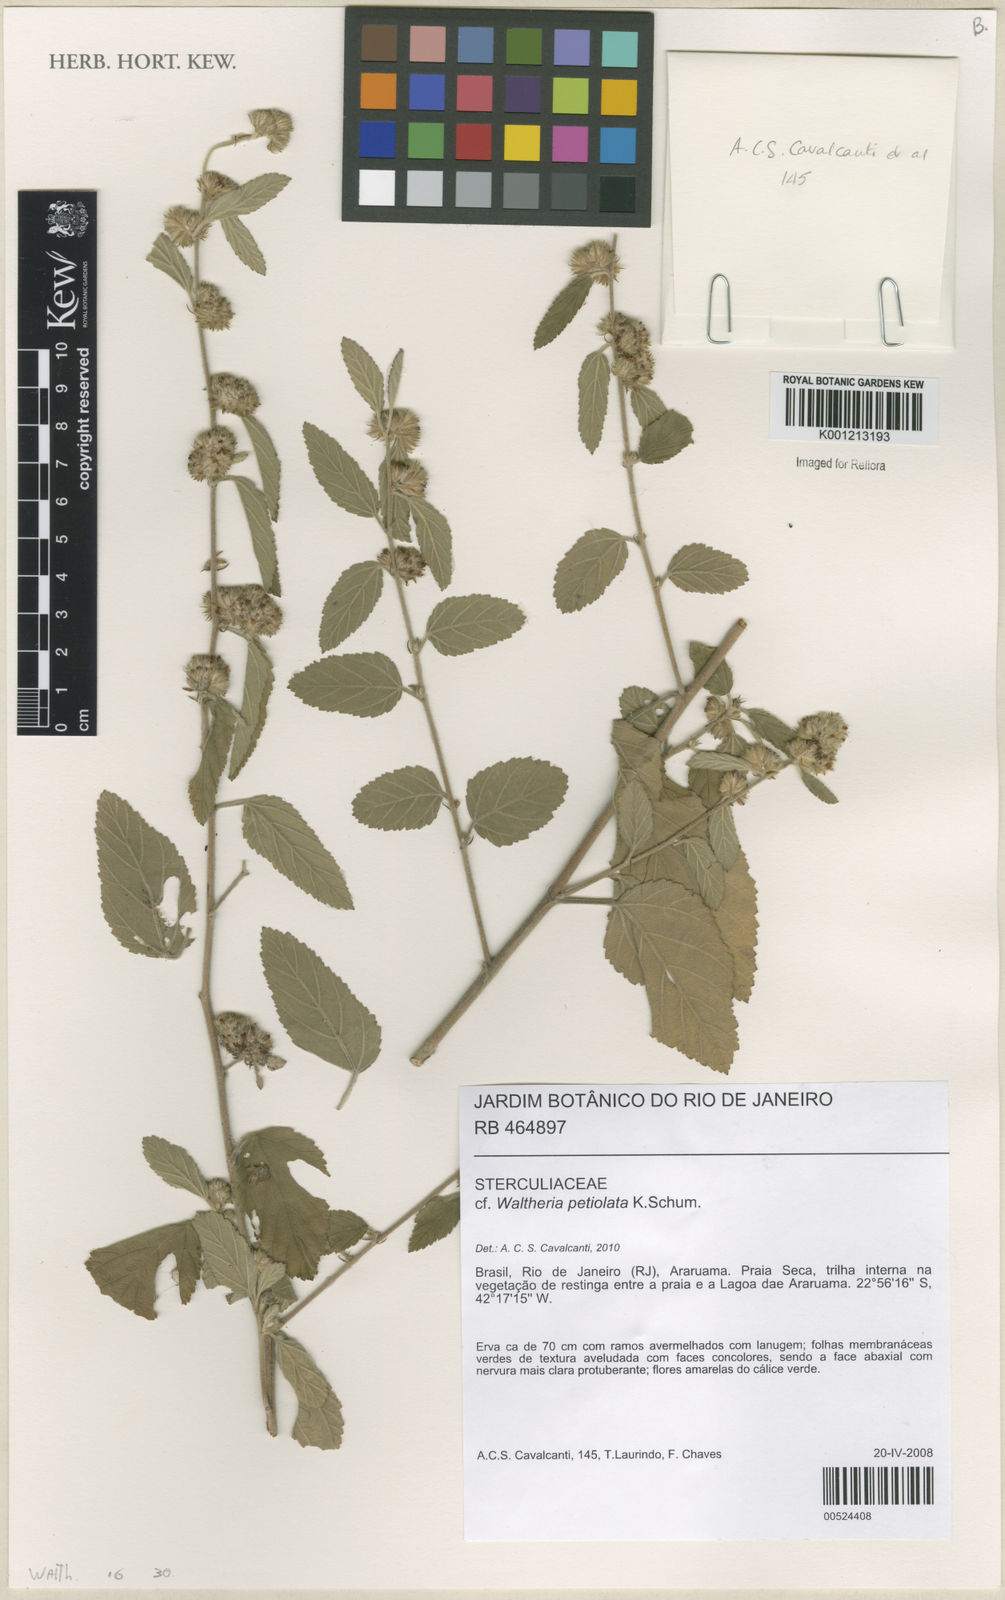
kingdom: Plantae
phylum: Tracheophyta
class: Magnoliopsida
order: Malvales
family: Malvaceae
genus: Waltheria
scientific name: Waltheria petiolata
